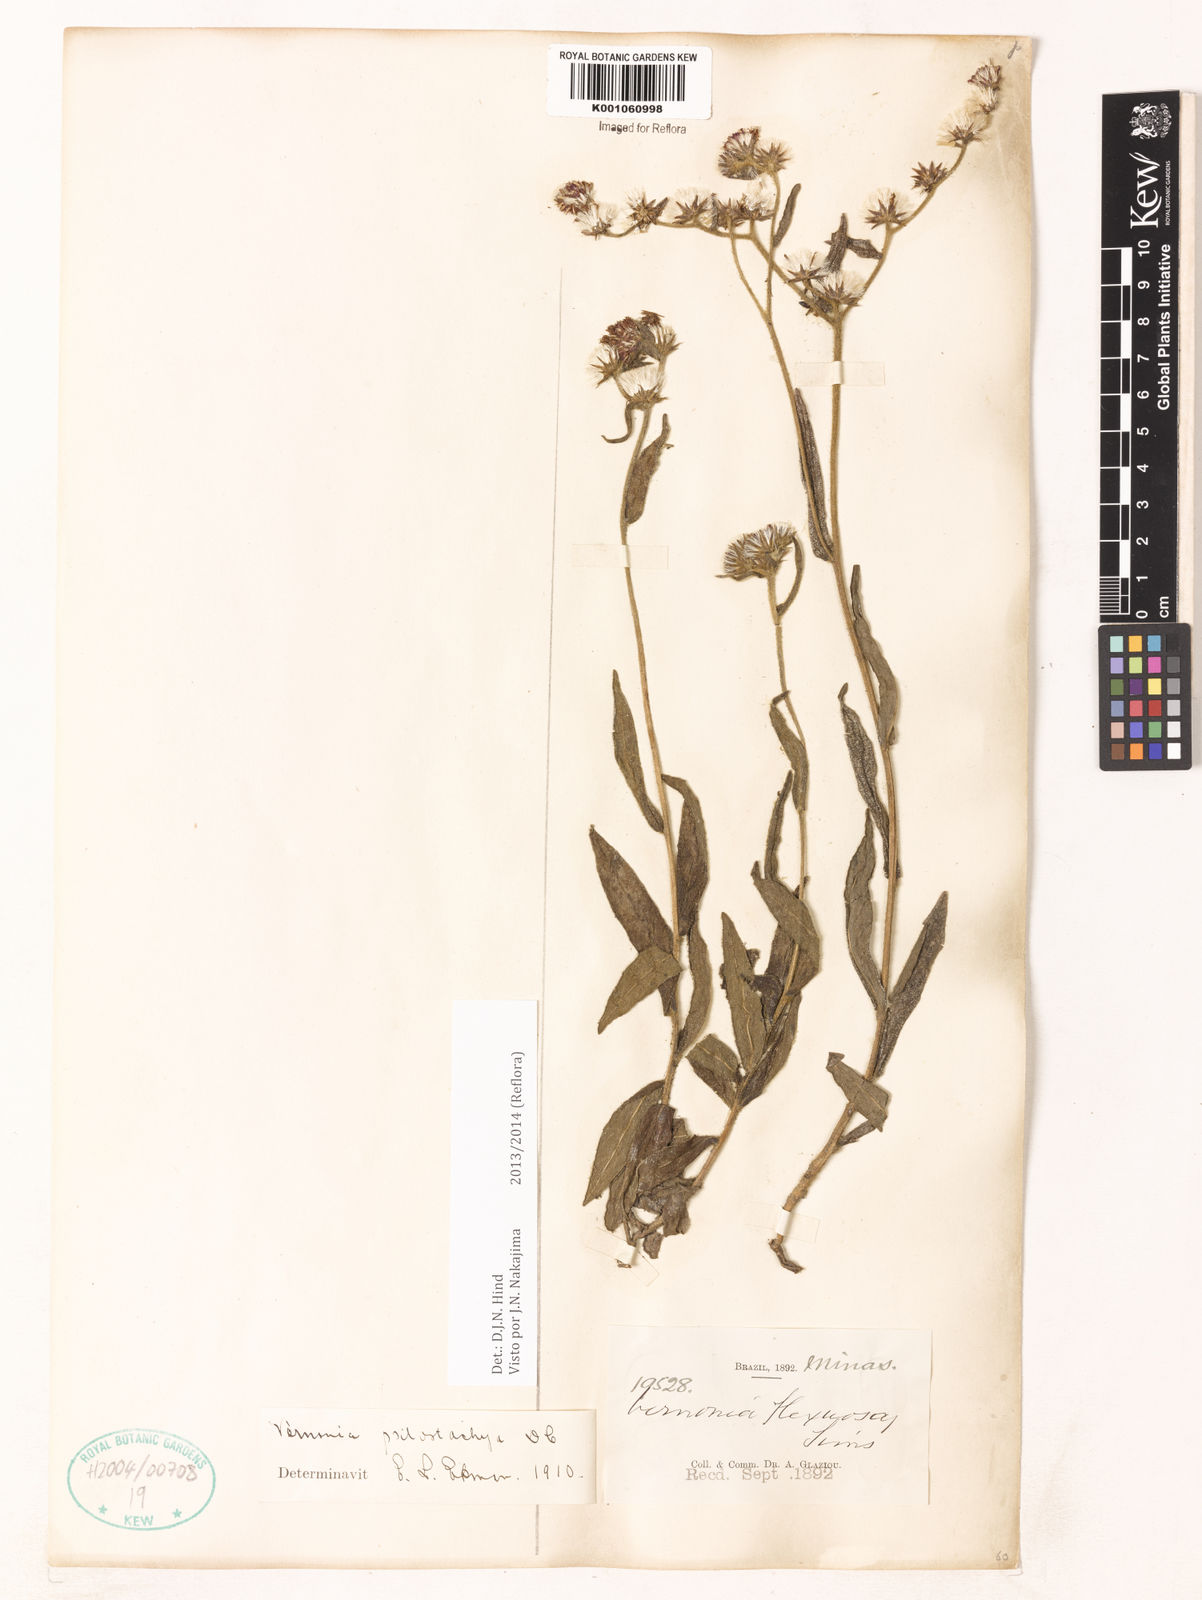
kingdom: Plantae
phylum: Tracheophyta
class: Magnoliopsida
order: Asterales
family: Asteraceae
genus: Lepidaploa
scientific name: Lepidaploa psilostachya
